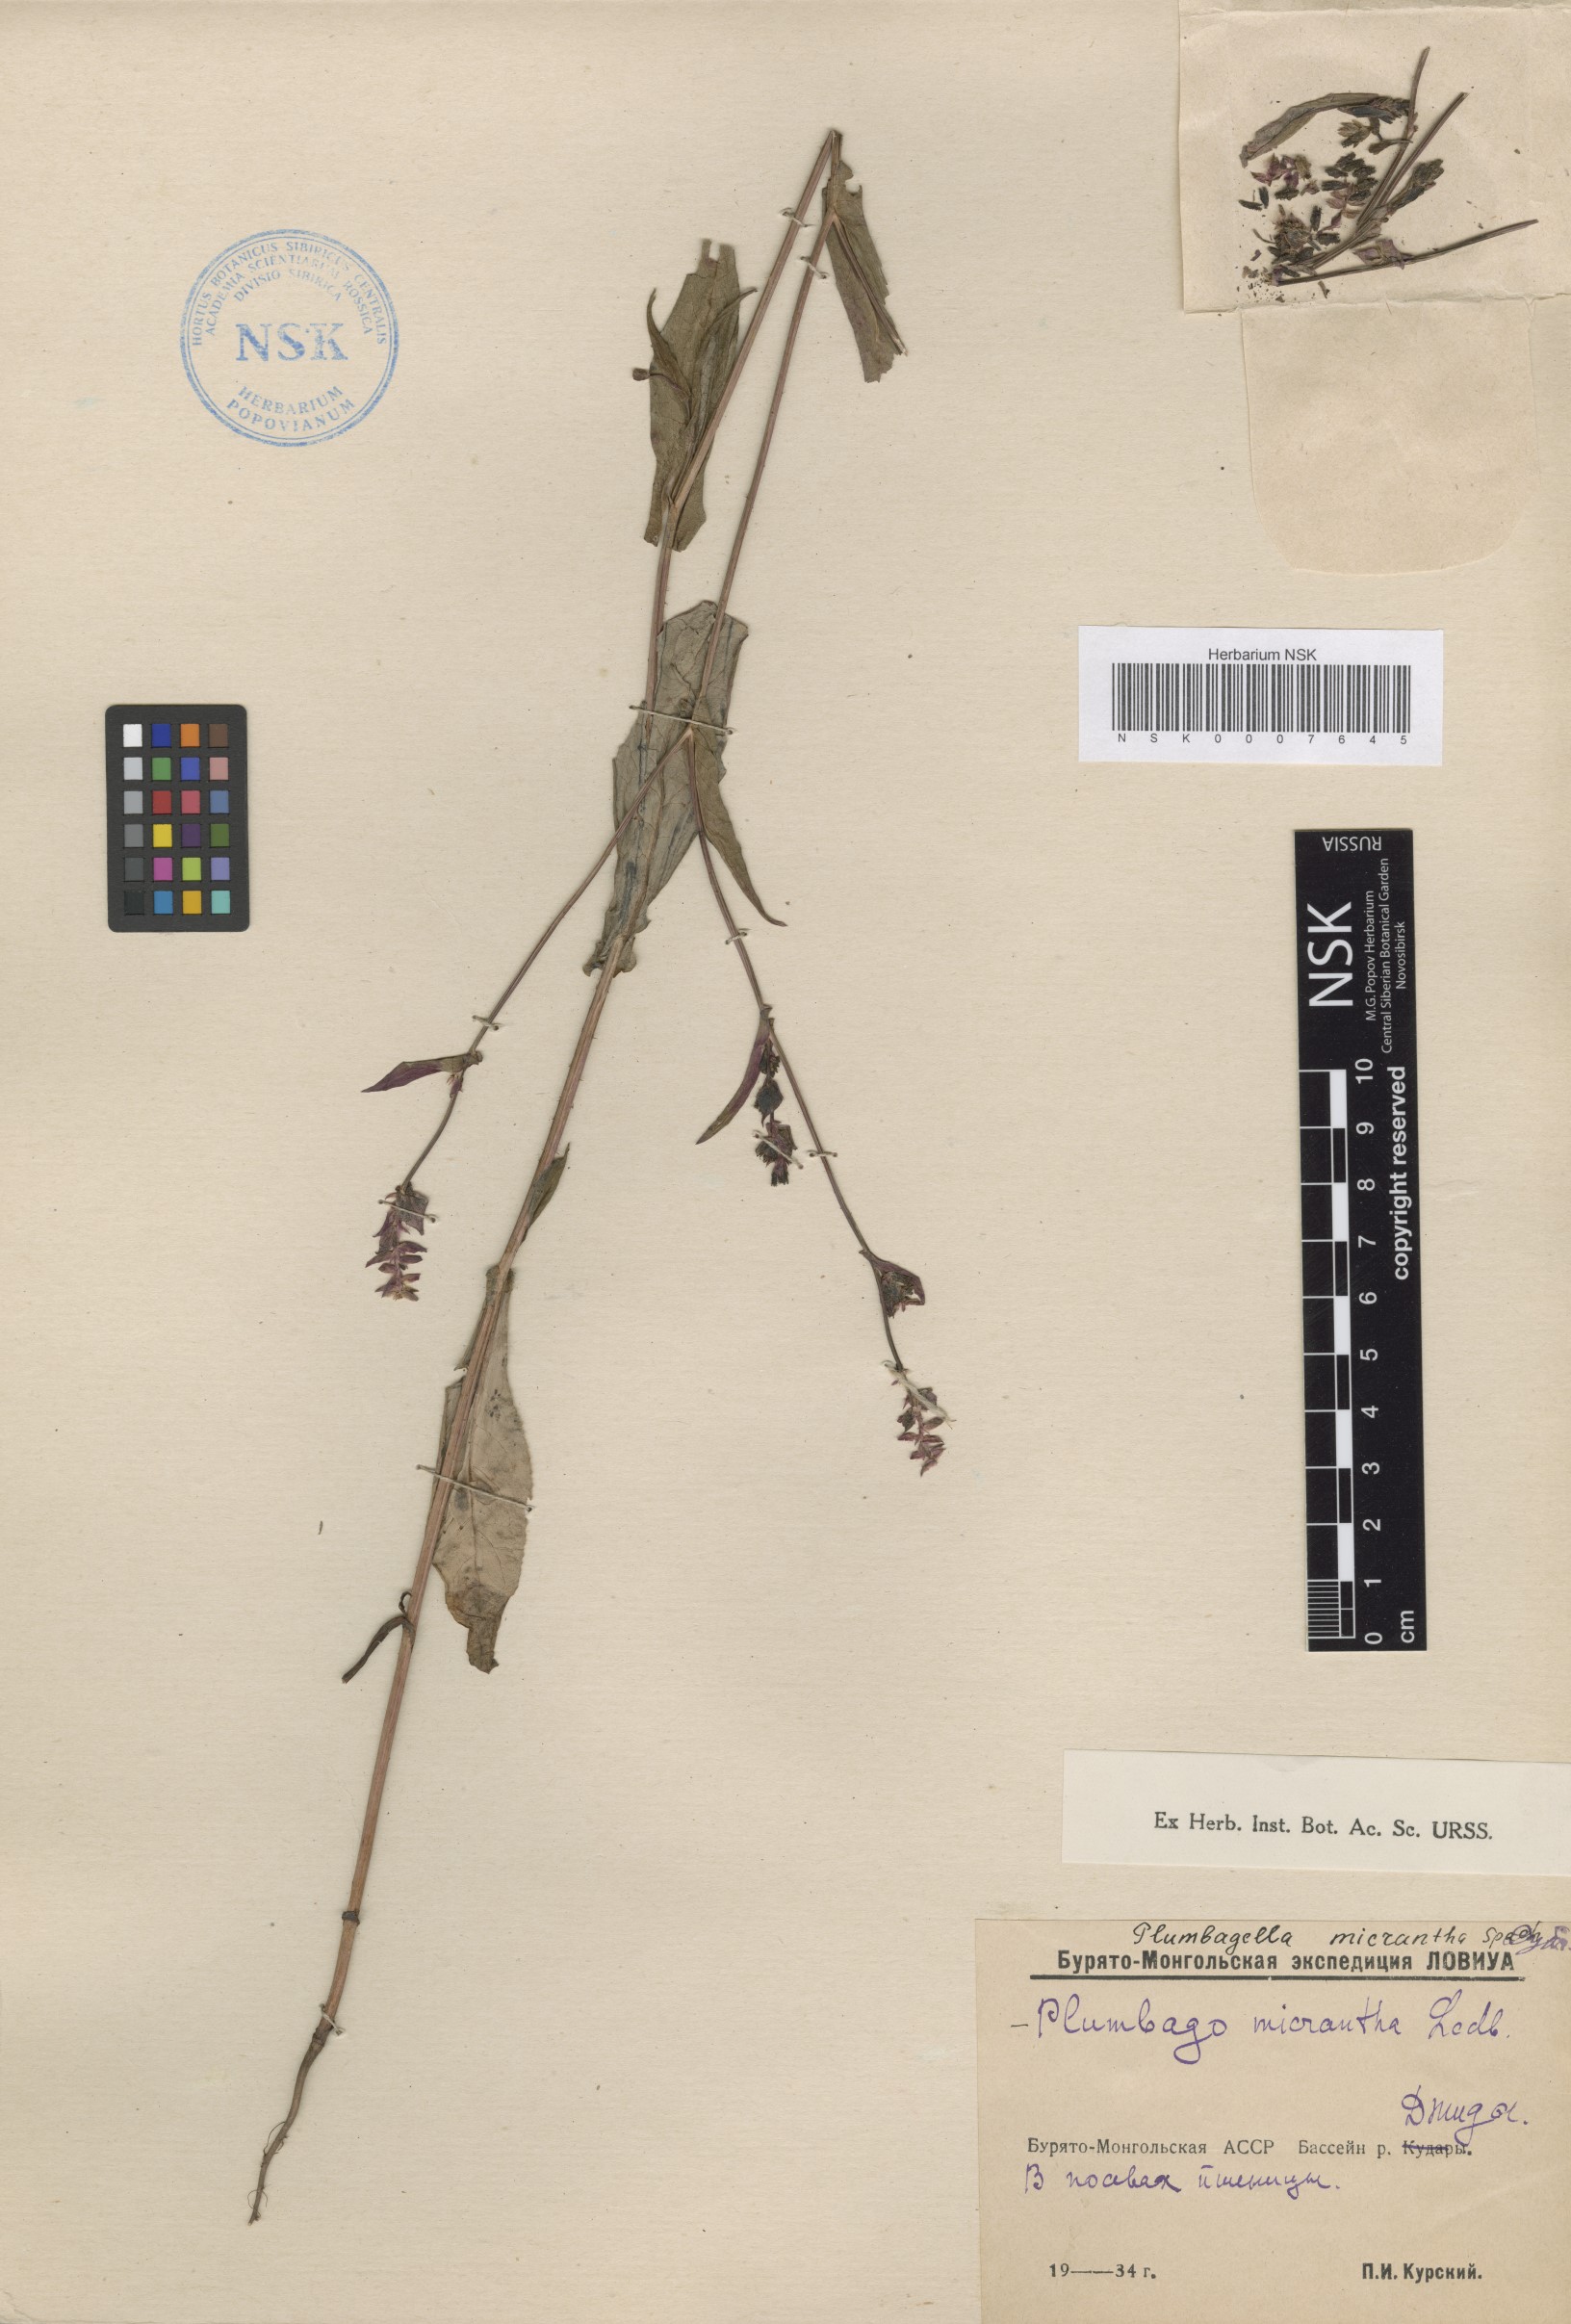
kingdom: Plantae
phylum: Tracheophyta
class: Magnoliopsida
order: Caryophyllales
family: Plumbaginaceae
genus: Plumbagella
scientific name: Plumbagella micrantha
